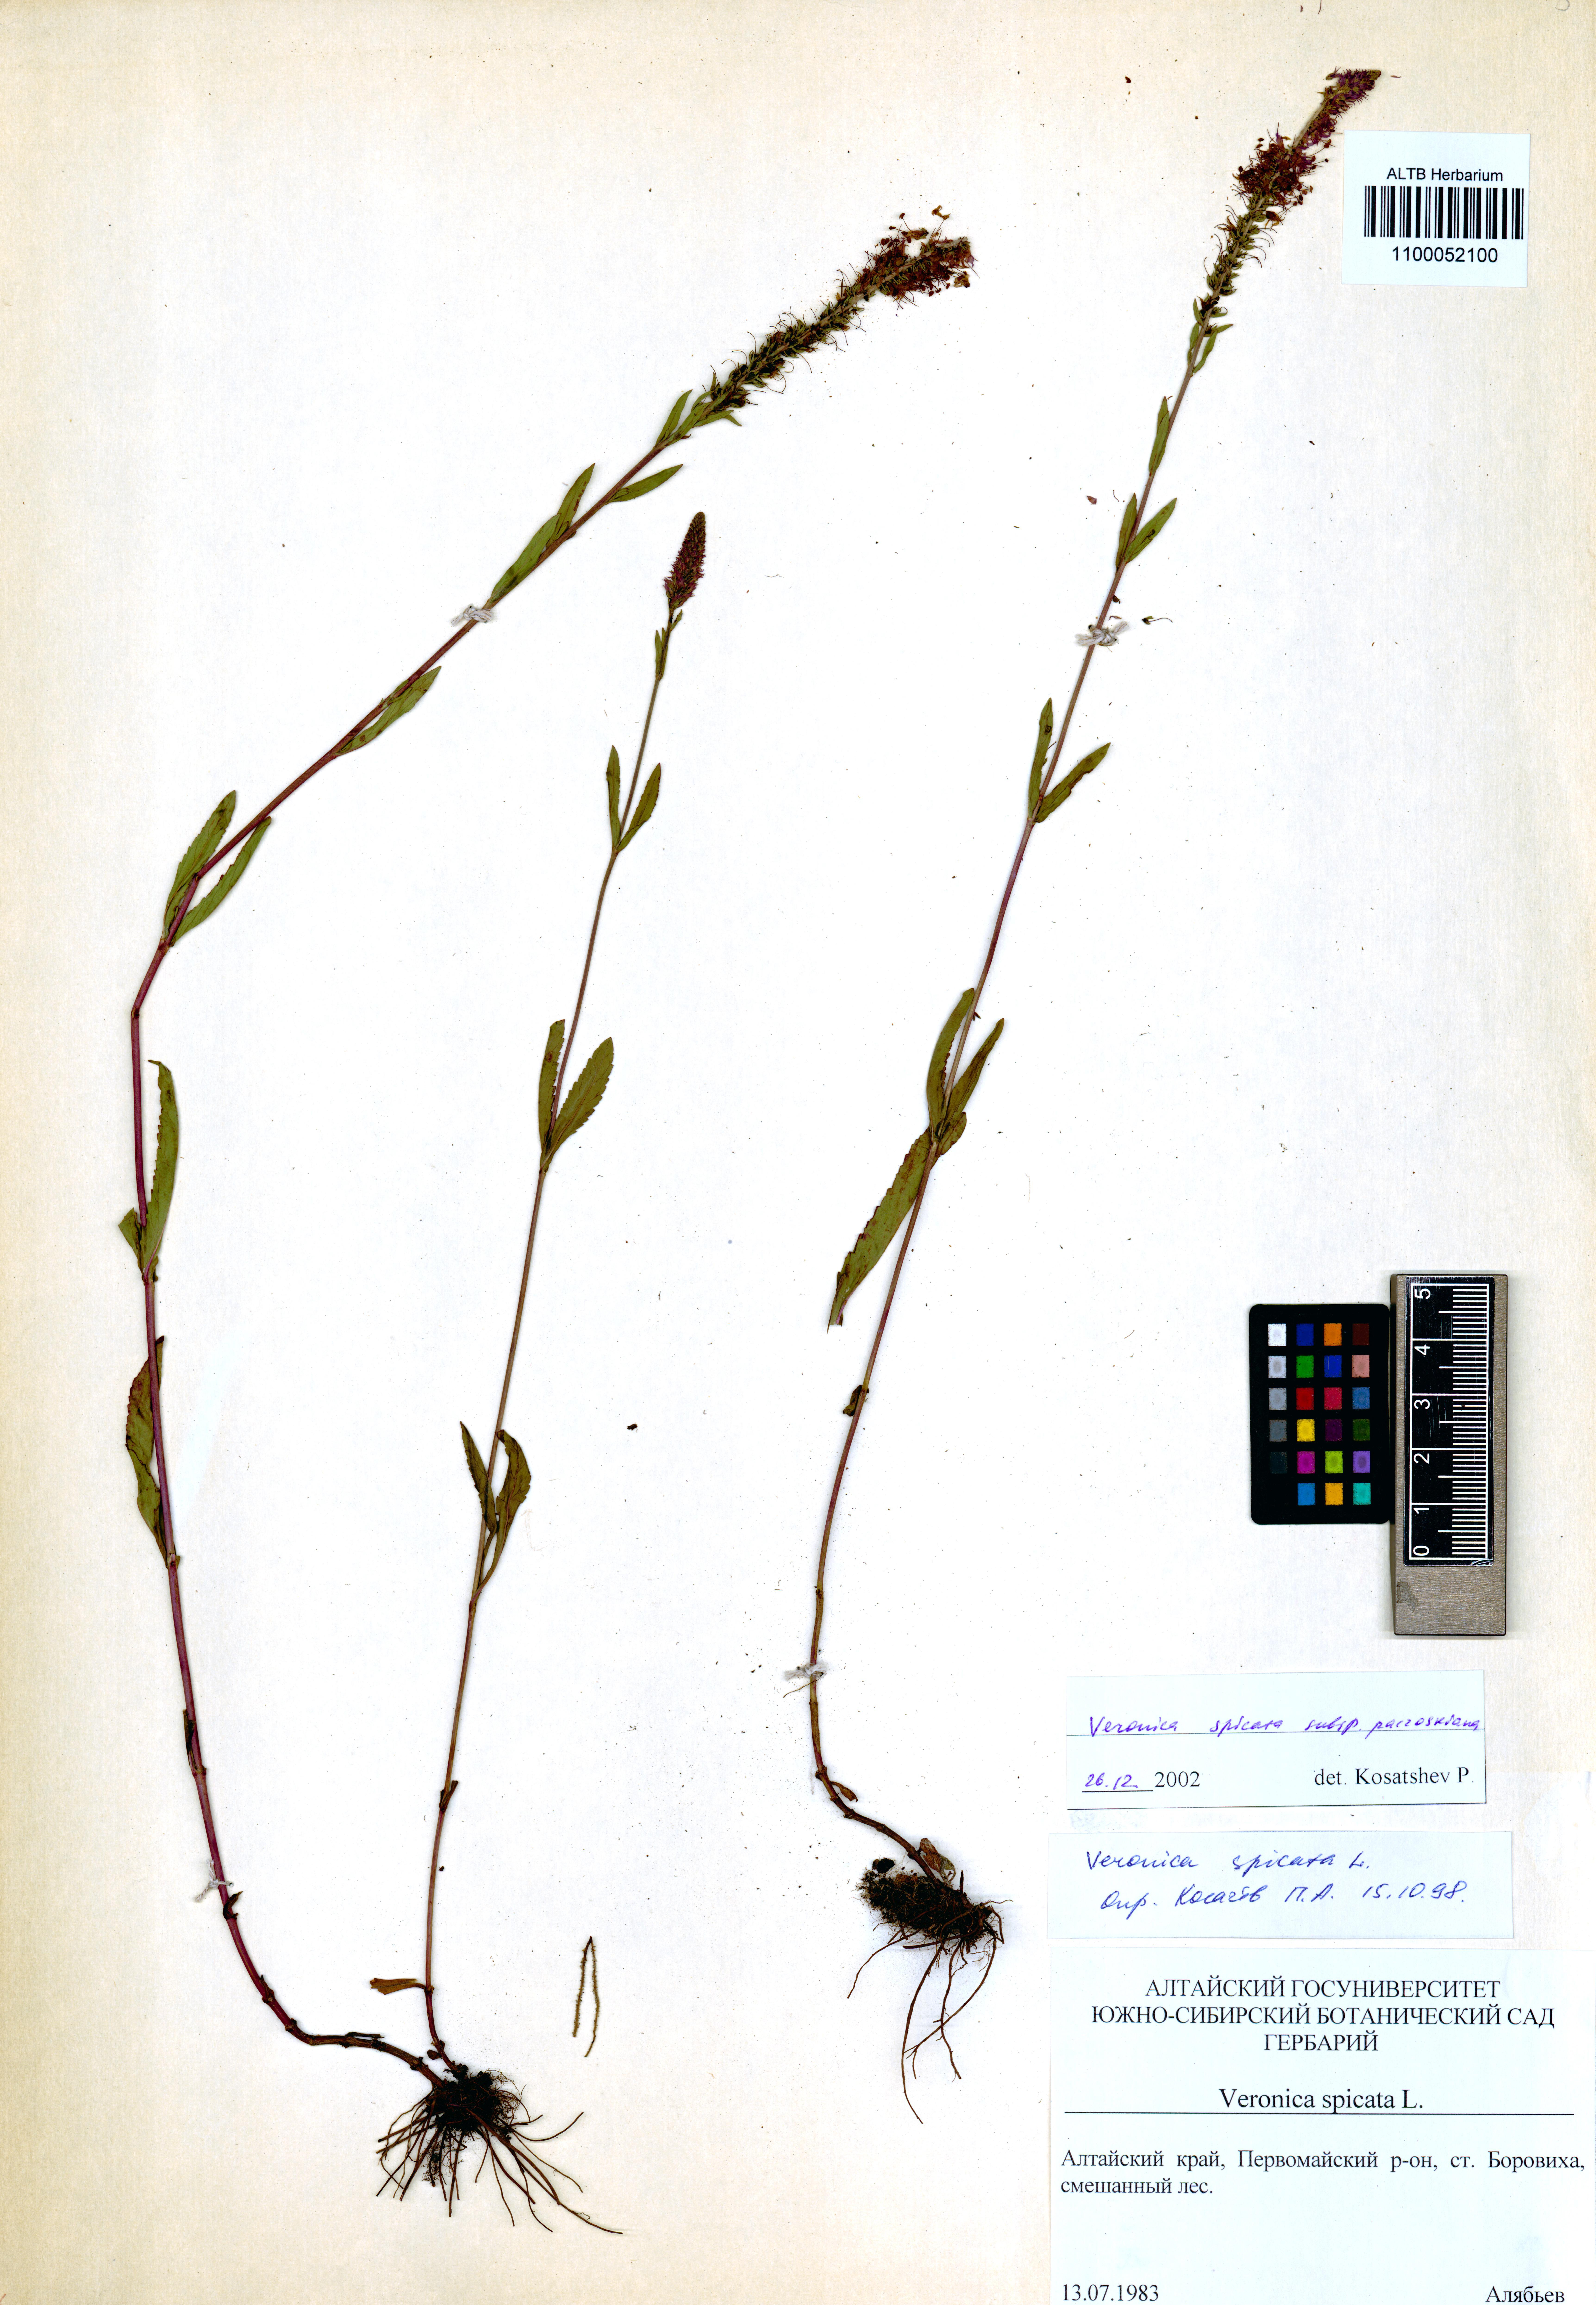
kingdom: Plantae
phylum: Tracheophyta
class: Magnoliopsida
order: Lamiales
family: Plantaginaceae
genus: Veronica
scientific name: Veronica spicata
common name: Spiked speedwell
